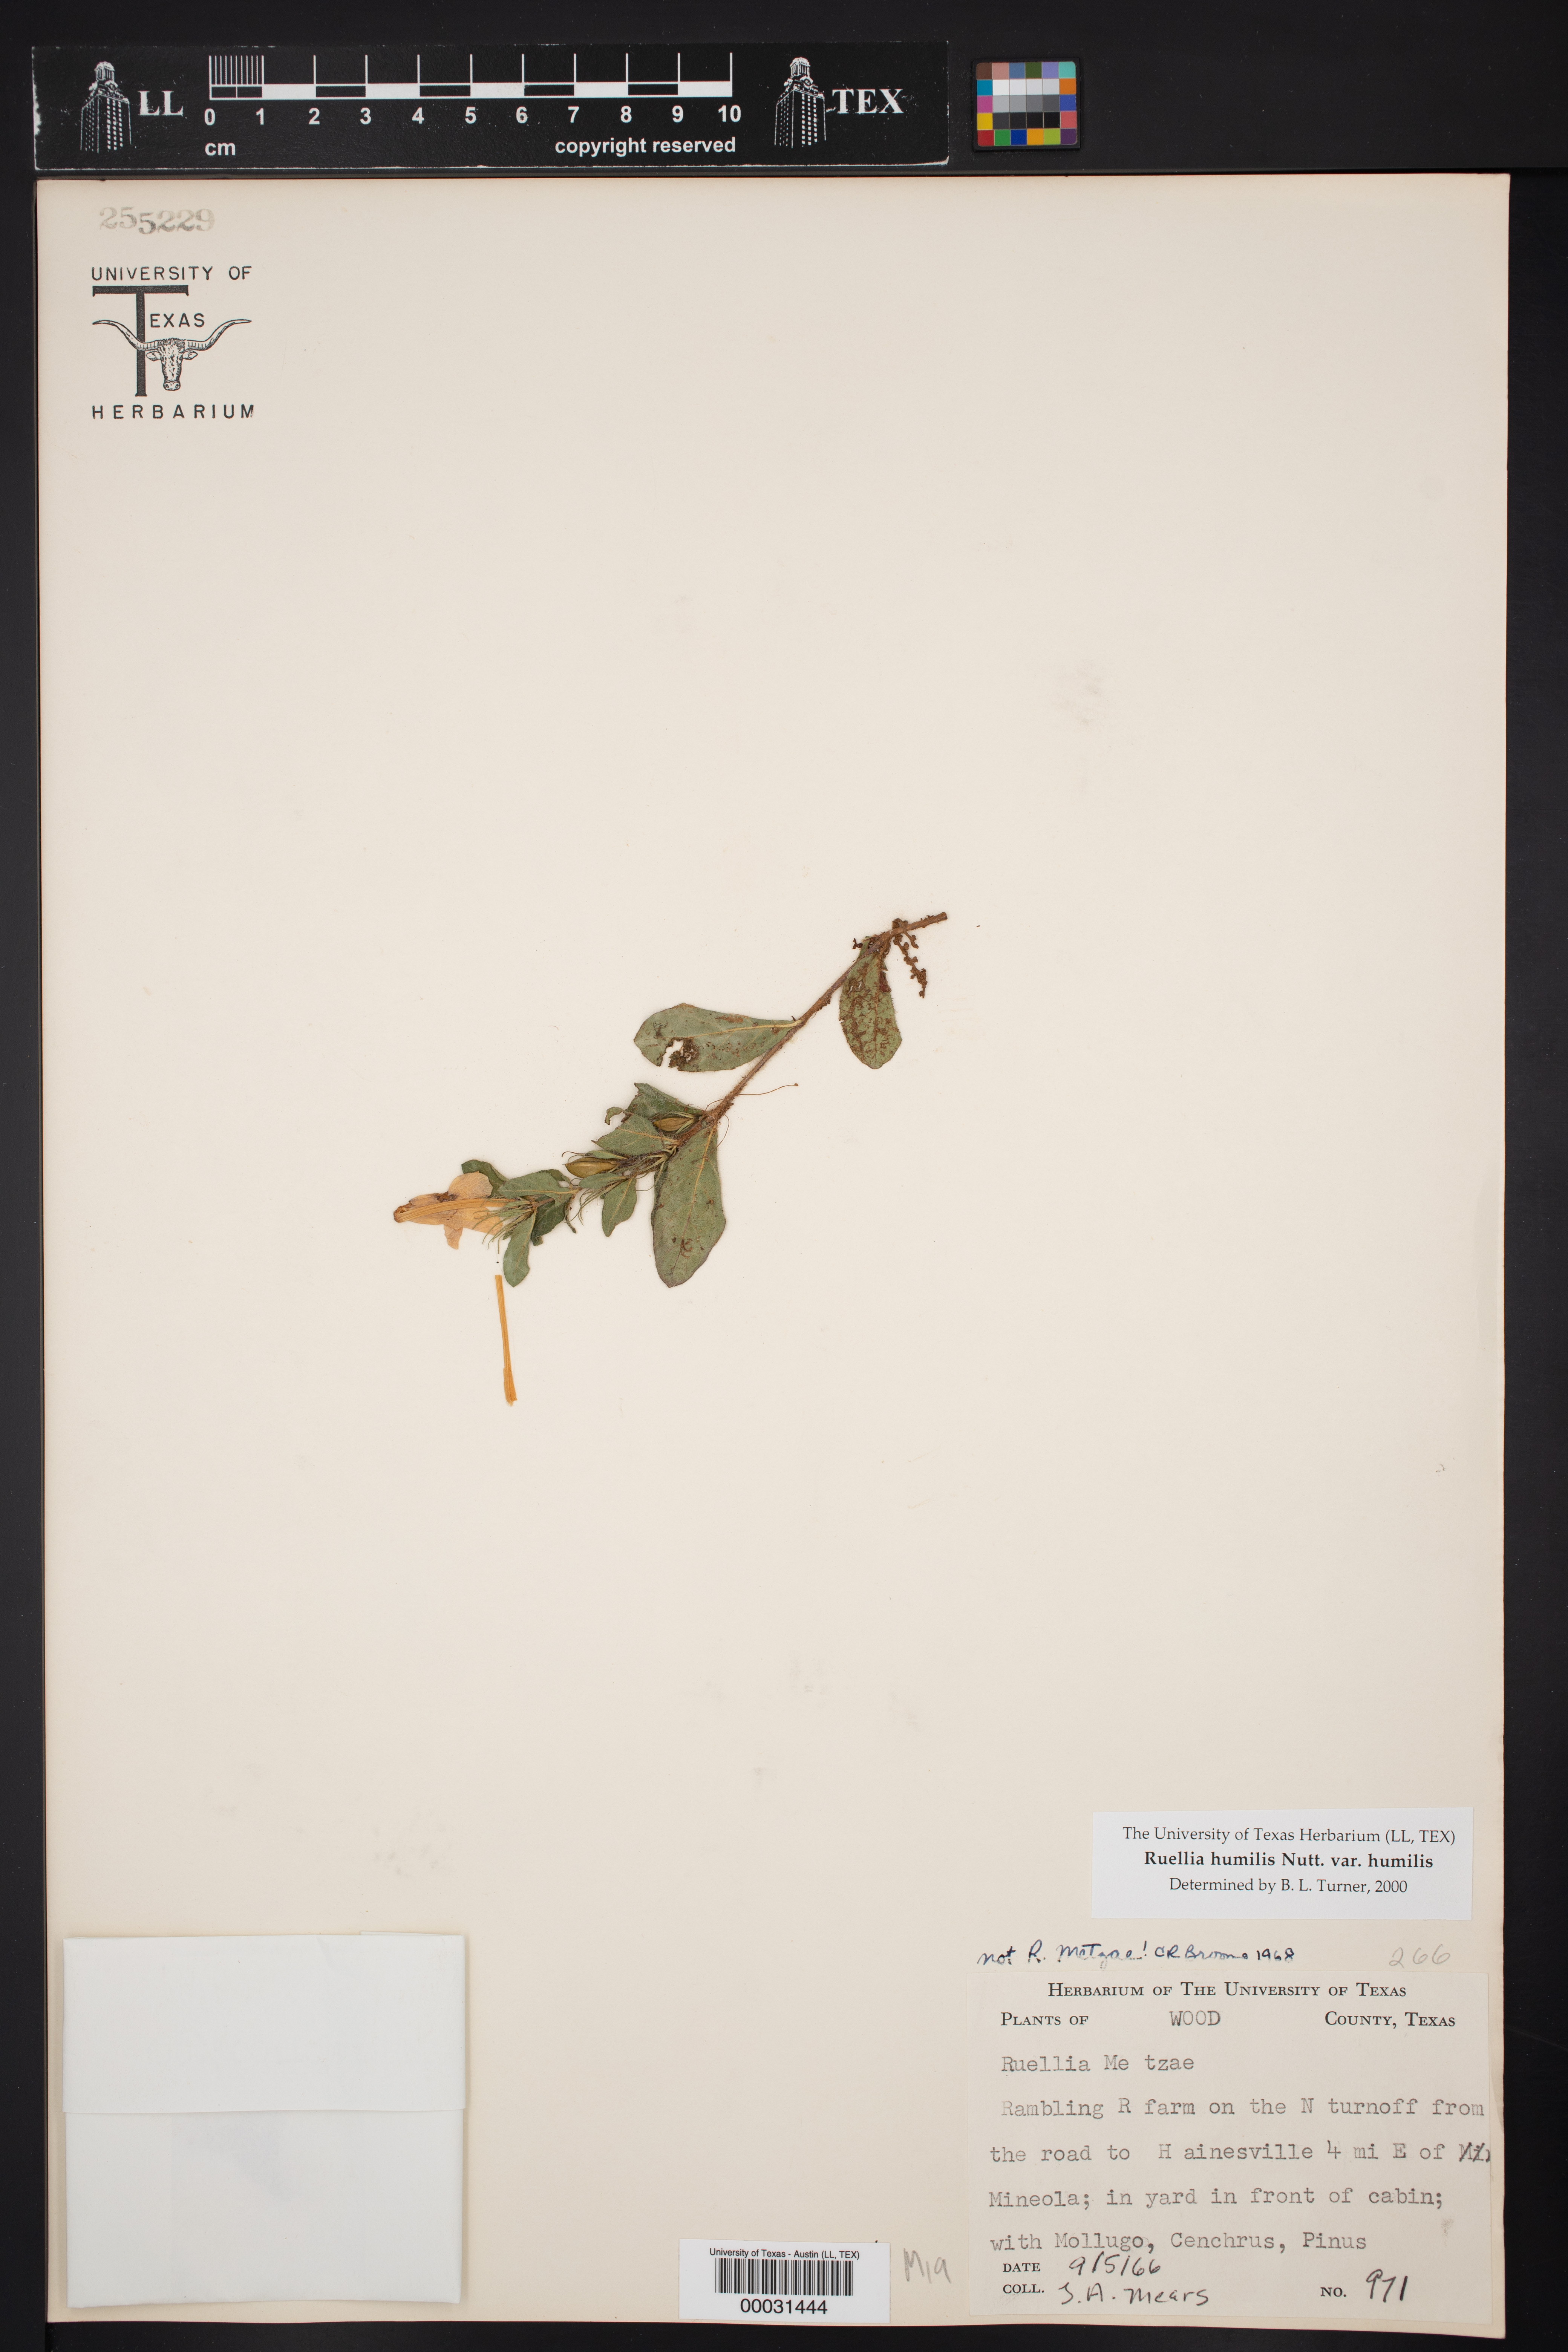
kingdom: Plantae
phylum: Tracheophyta
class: Magnoliopsida
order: Lamiales
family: Acanthaceae
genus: Ruellia
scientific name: Ruellia humilis
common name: Fringe-leaf ruellia
